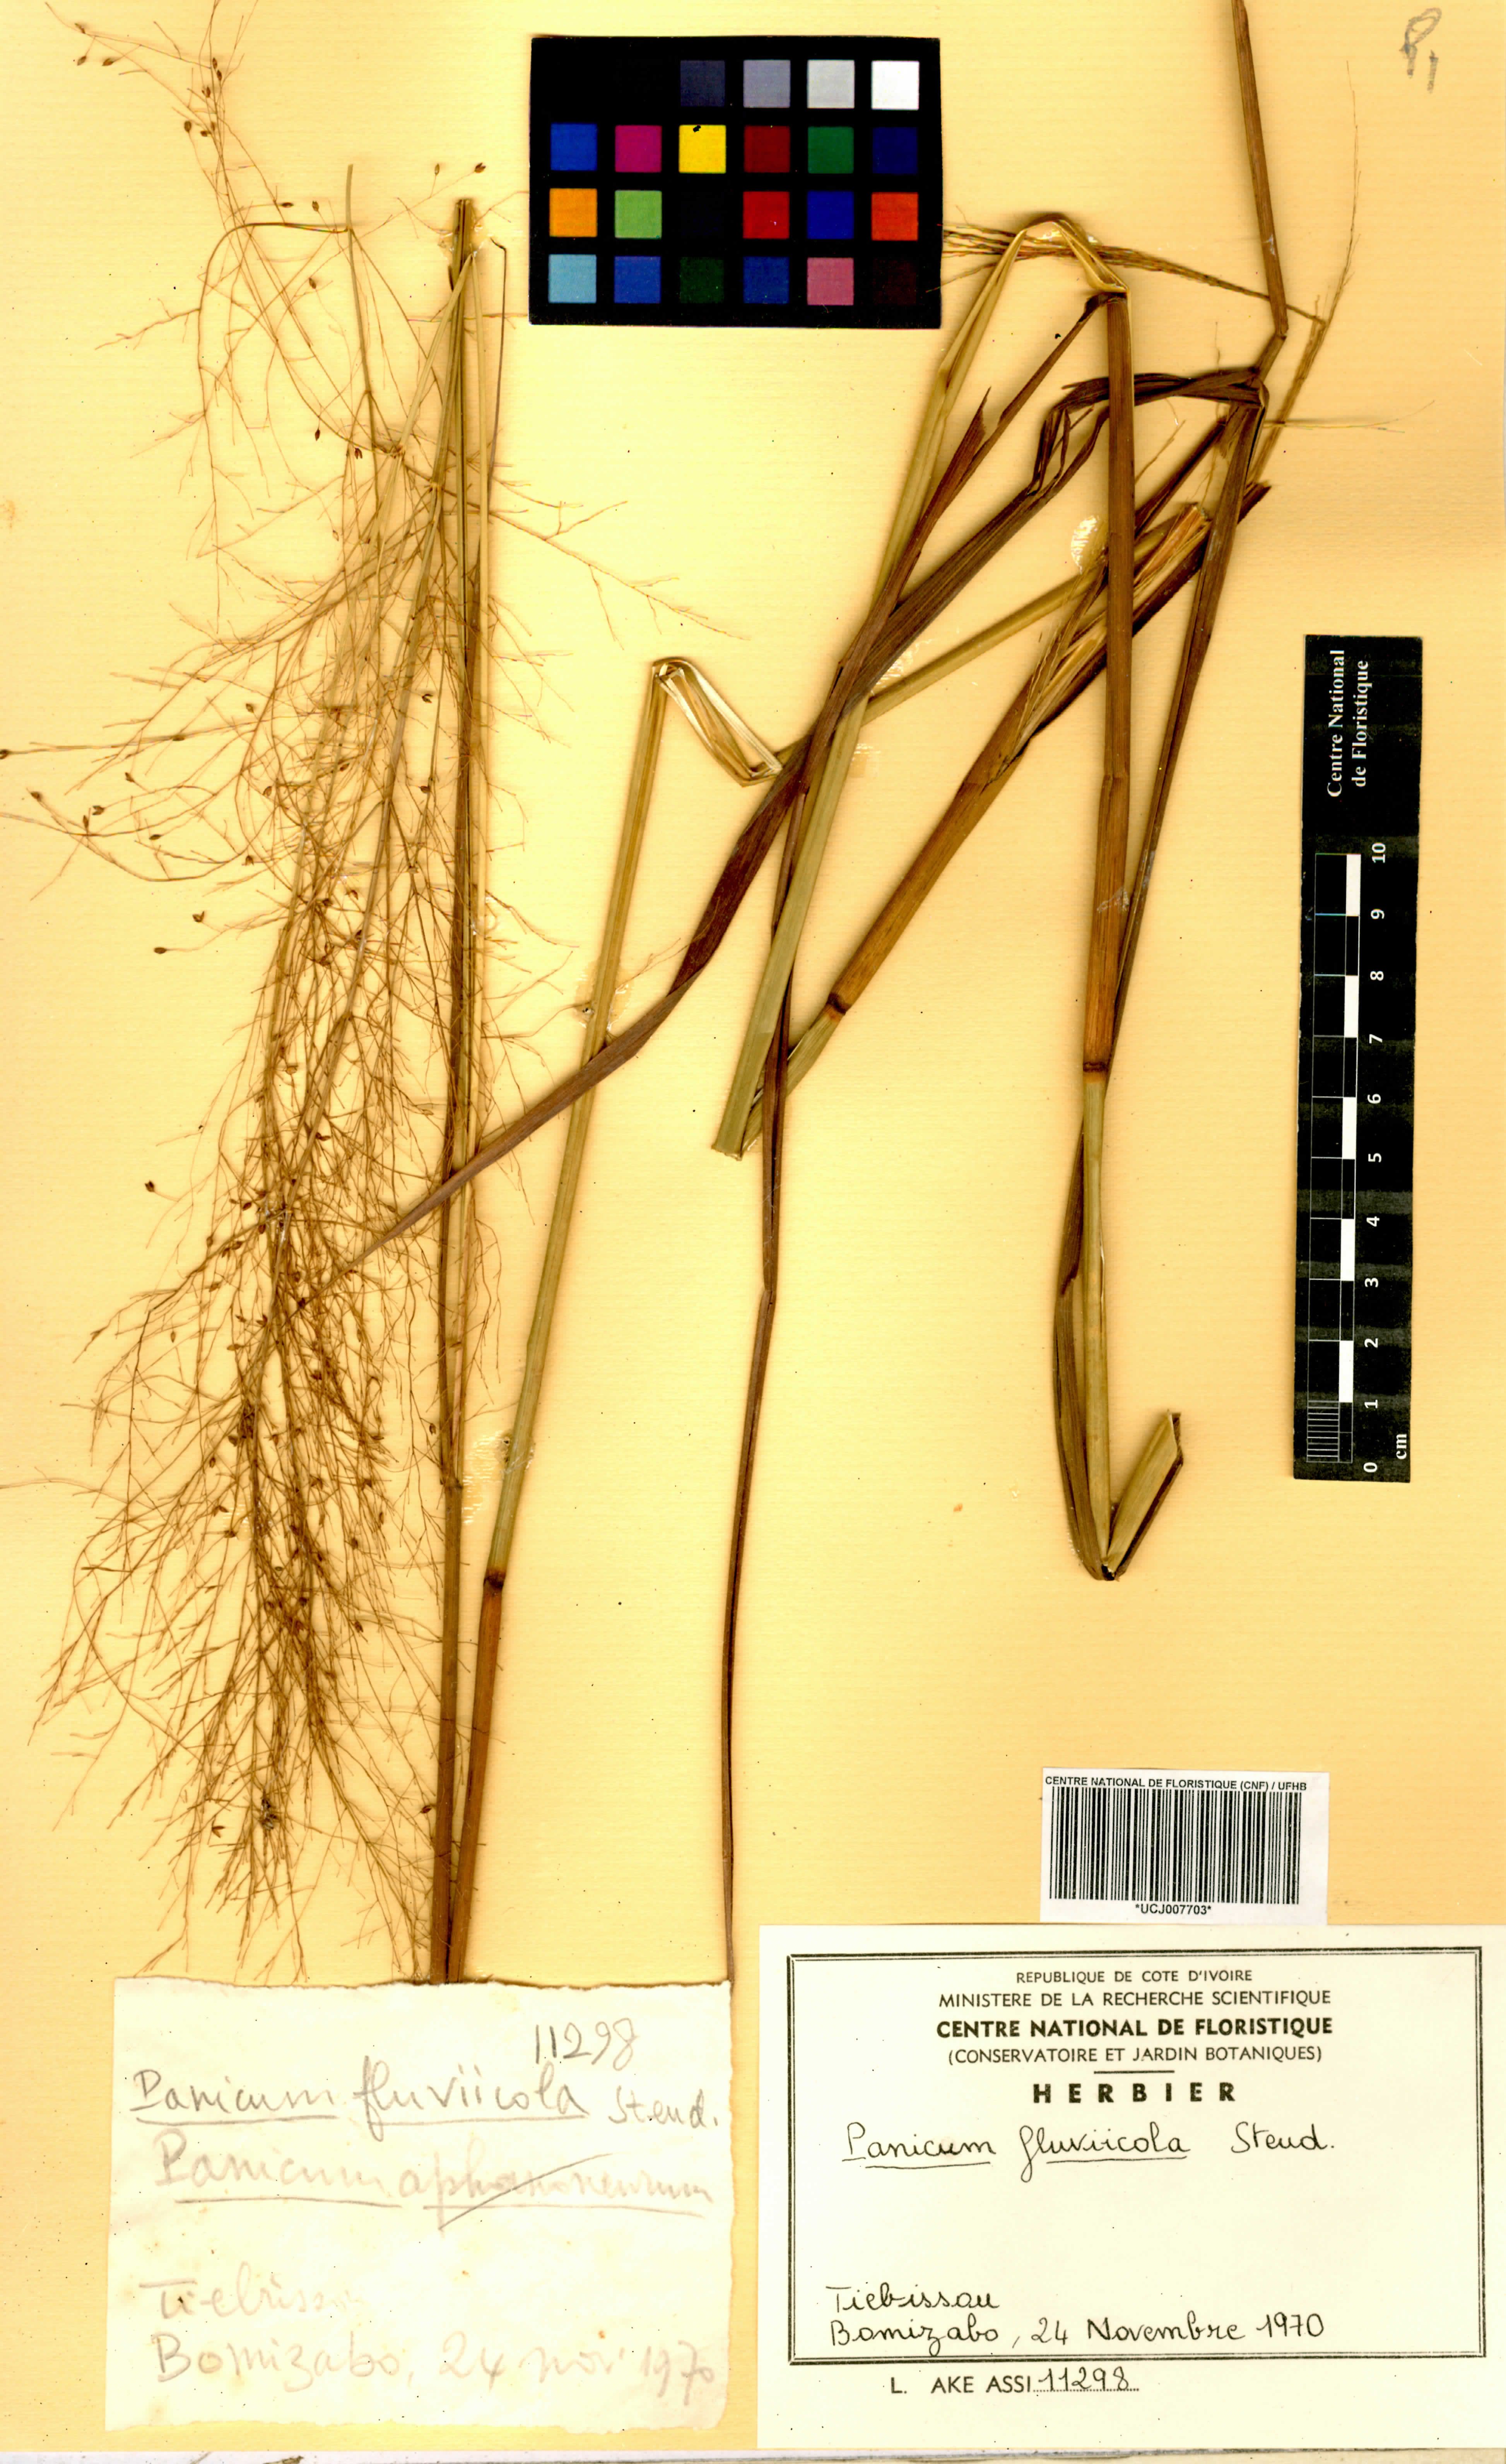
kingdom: Plantae
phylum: Tracheophyta
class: Liliopsida
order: Poales
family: Poaceae
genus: Panicum
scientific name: Panicum fluviicola
